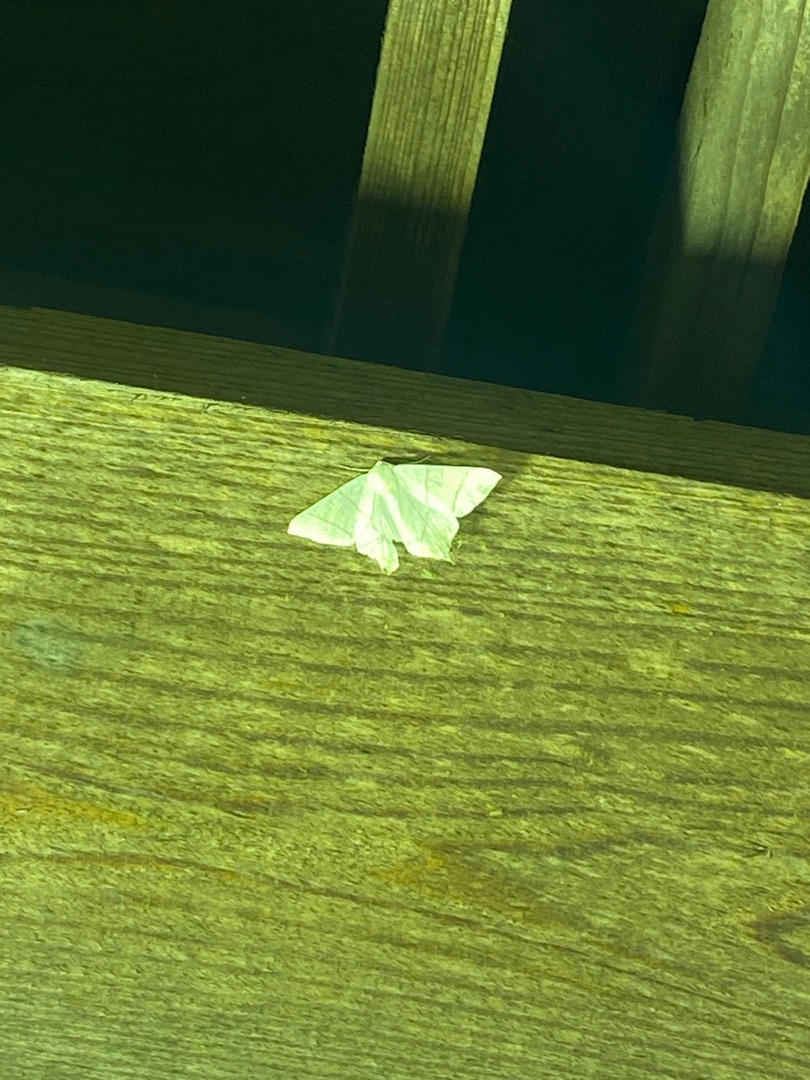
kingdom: Animalia
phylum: Arthropoda
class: Insecta
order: Lepidoptera
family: Geometridae
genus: Ourapteryx
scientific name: Ourapteryx sambucaria
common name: Natsvalehale
